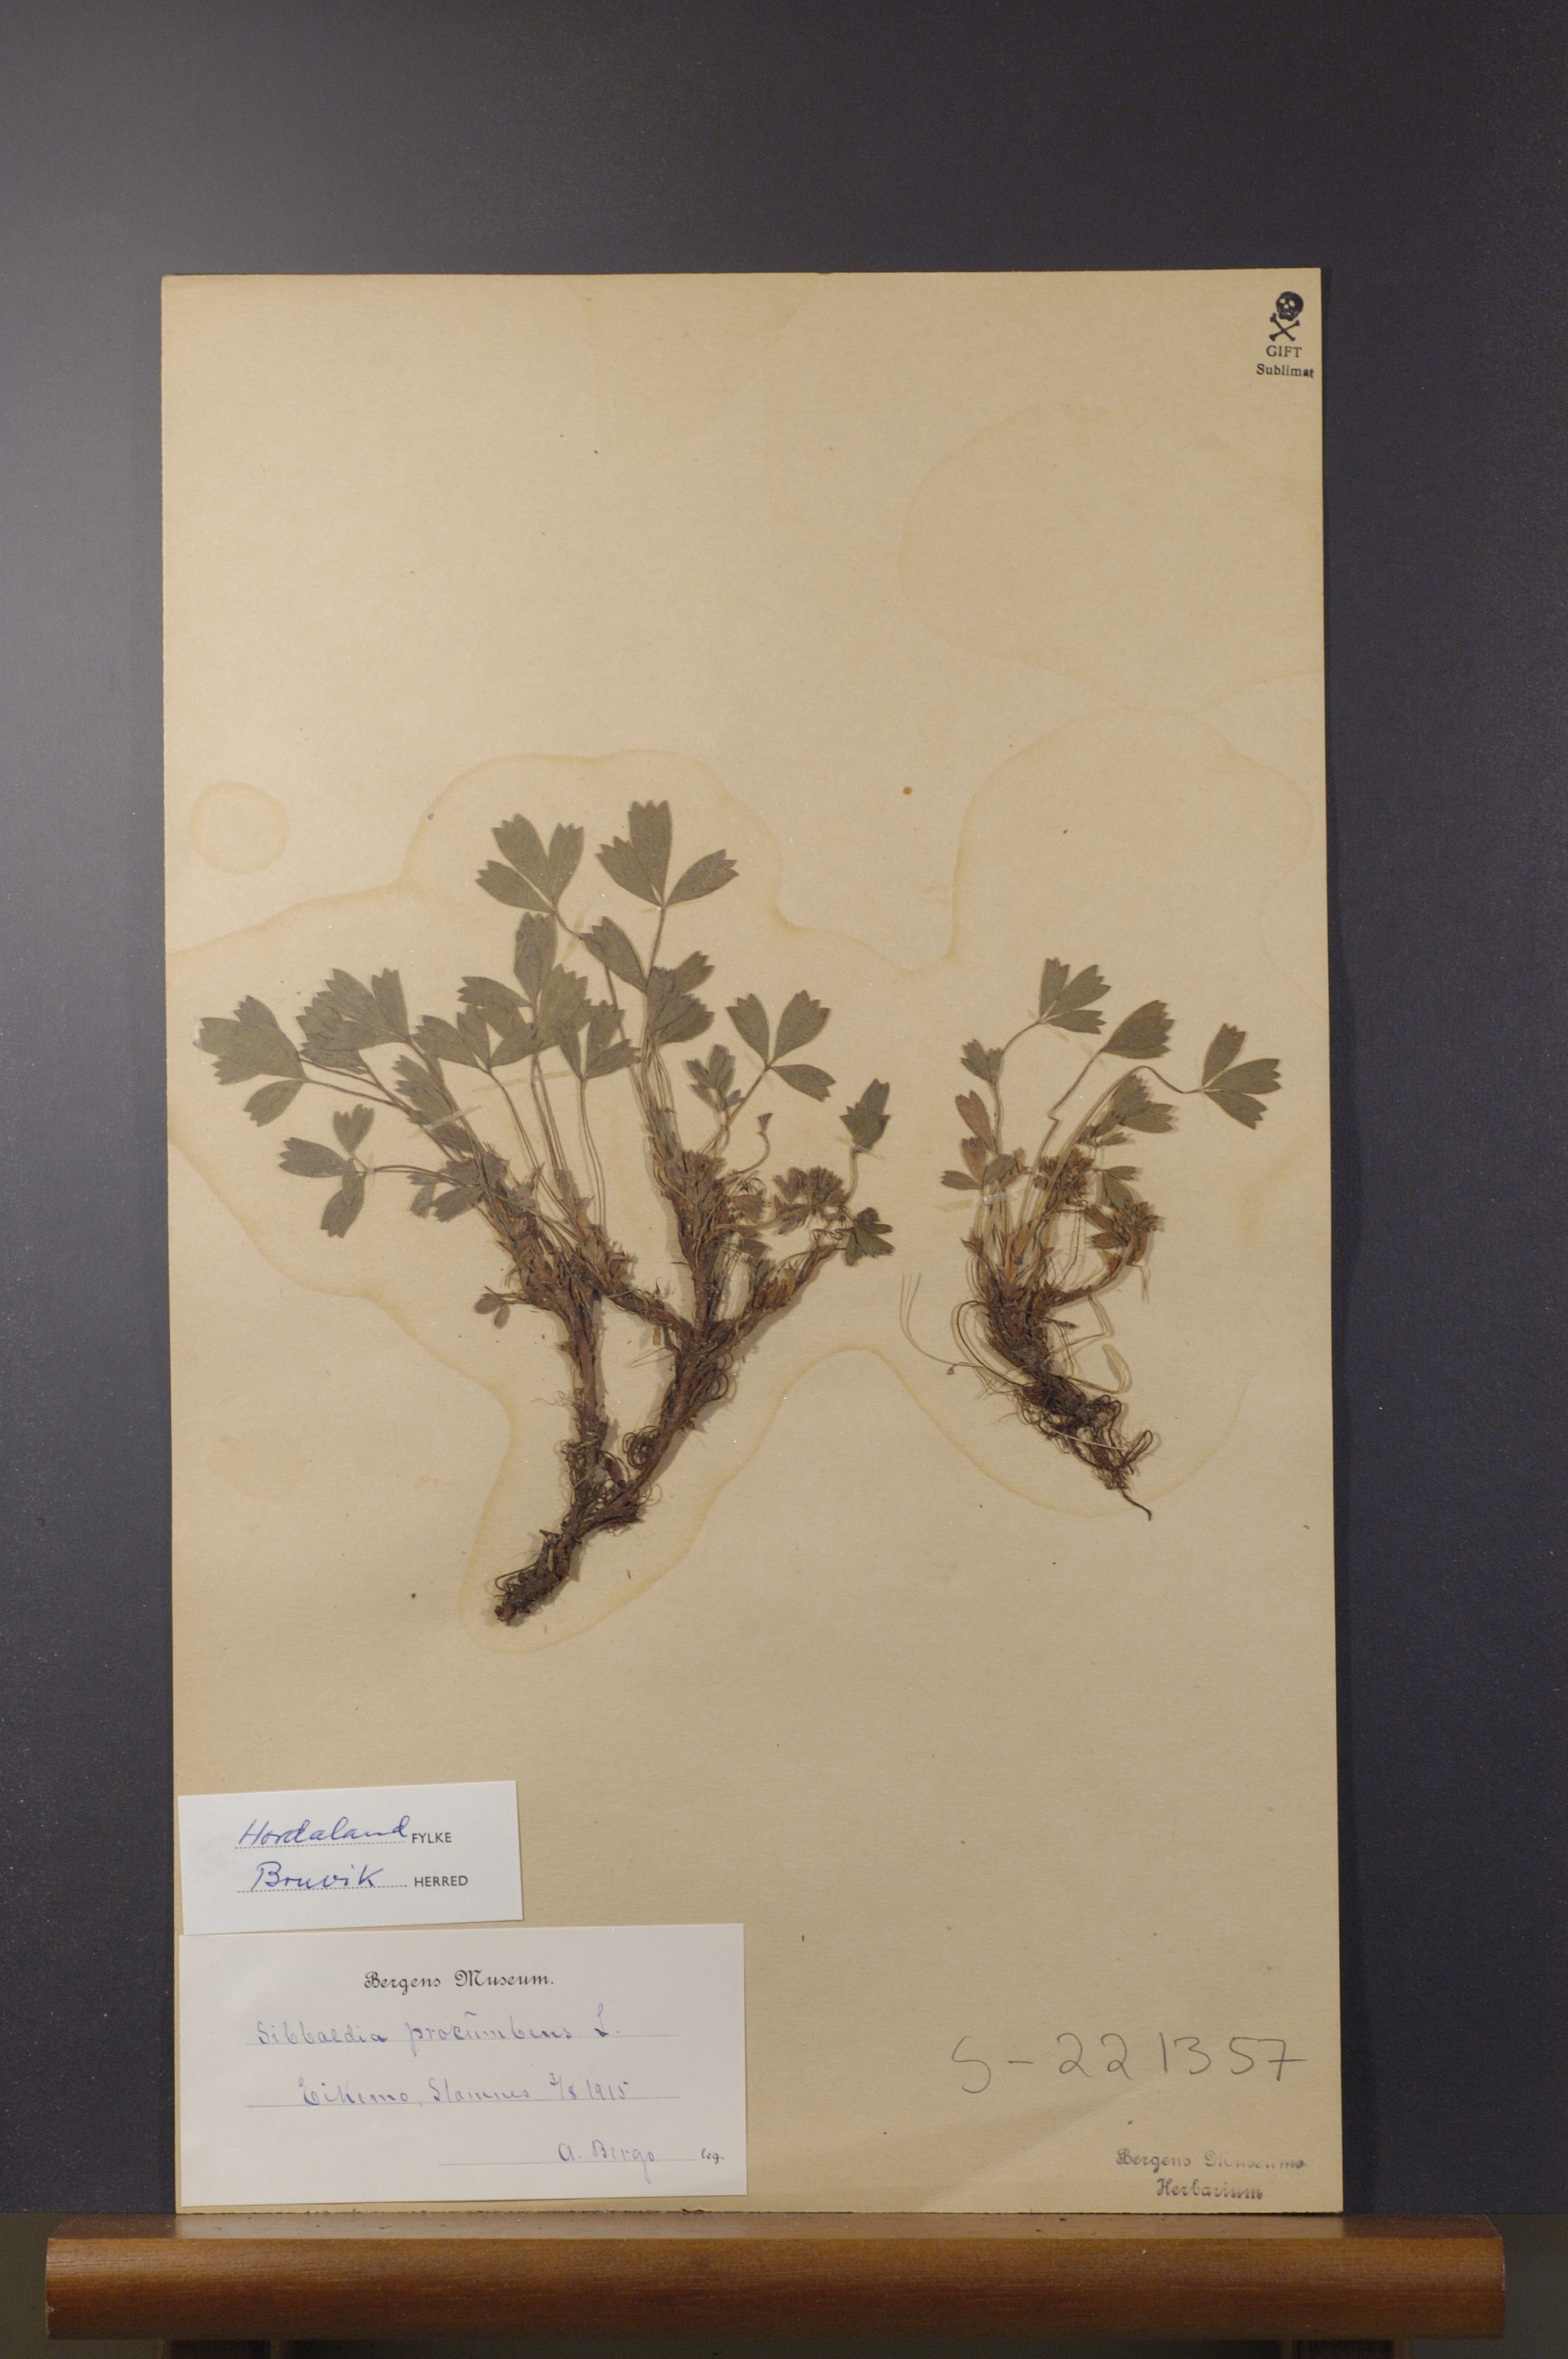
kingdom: Plantae
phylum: Tracheophyta
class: Magnoliopsida
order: Rosales
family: Rosaceae
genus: Sibbaldia
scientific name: Sibbaldia procumbens
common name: Creeping sibbaldia
